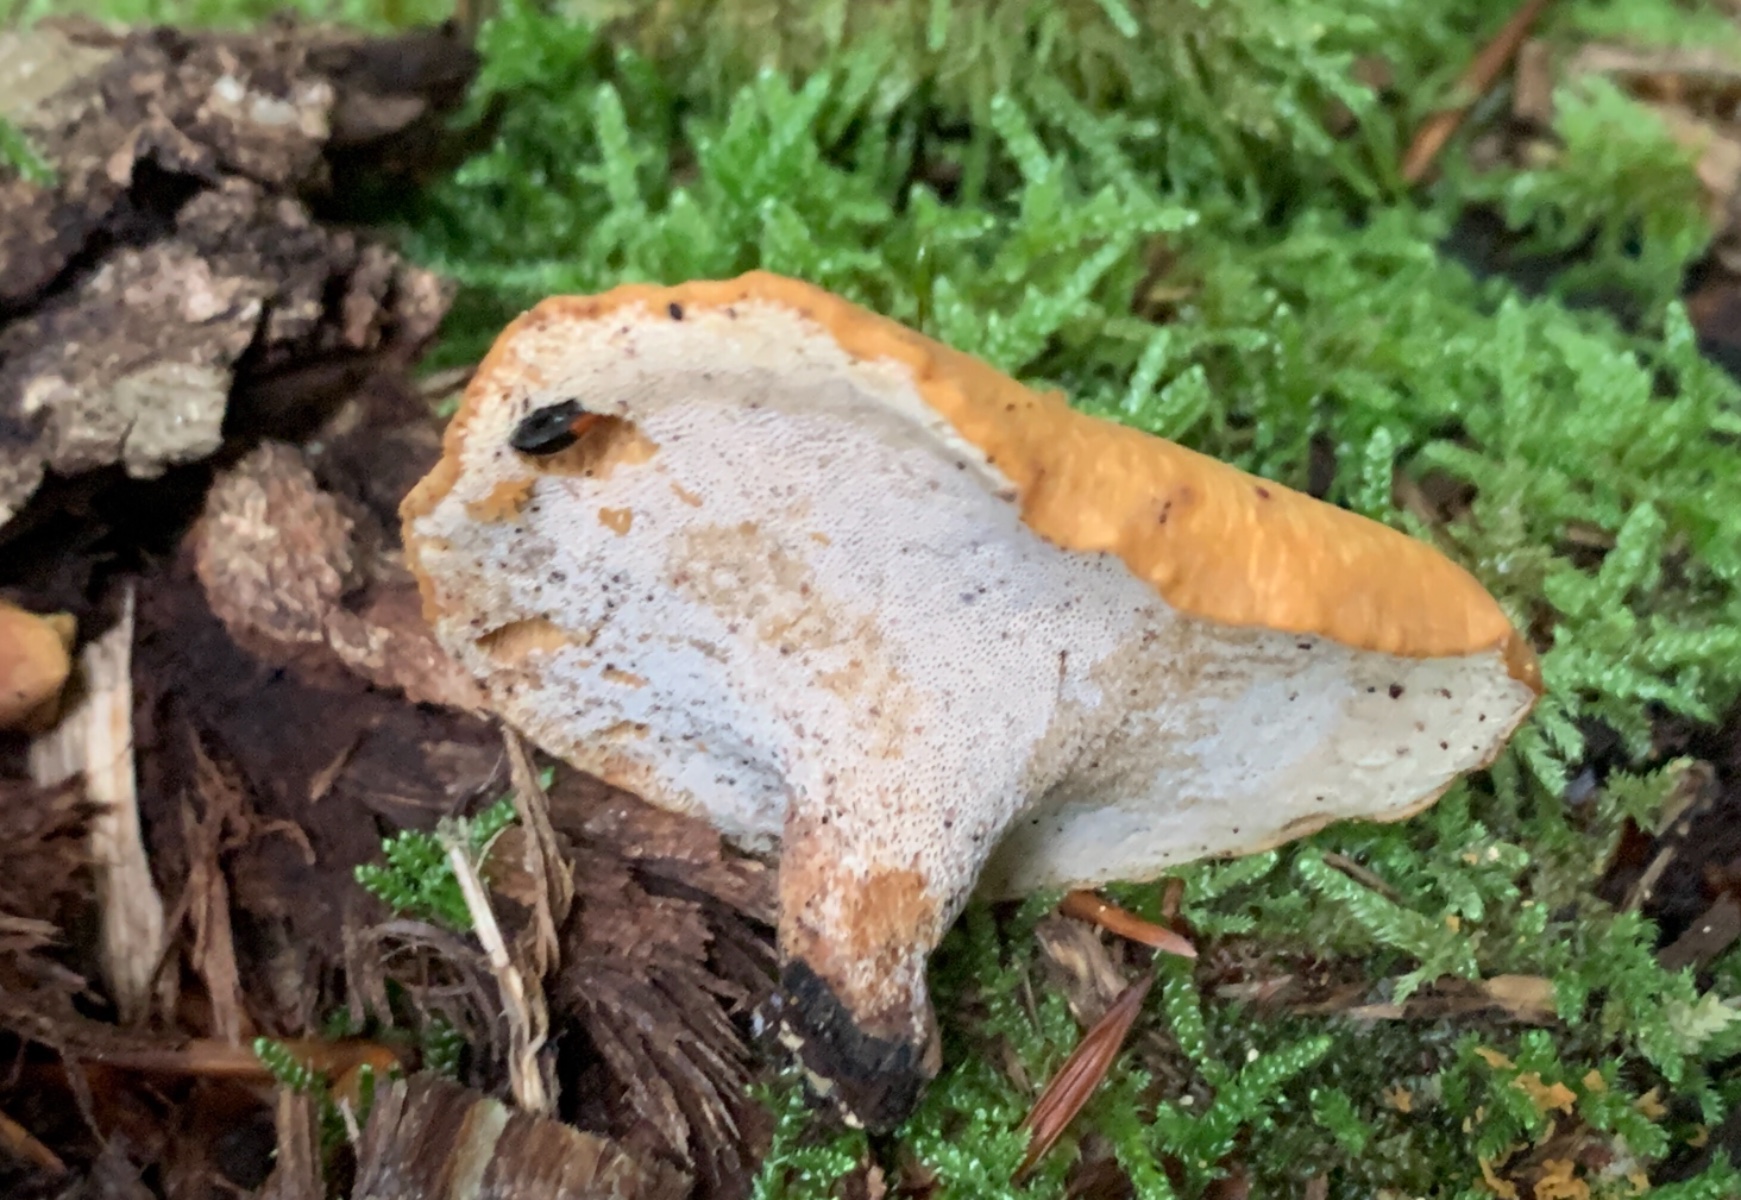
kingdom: Fungi
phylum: Basidiomycota
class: Agaricomycetes
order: Polyporales
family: Polyporaceae
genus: Cerioporus
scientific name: Cerioporus varius
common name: foranderlig stilkporesvamp
